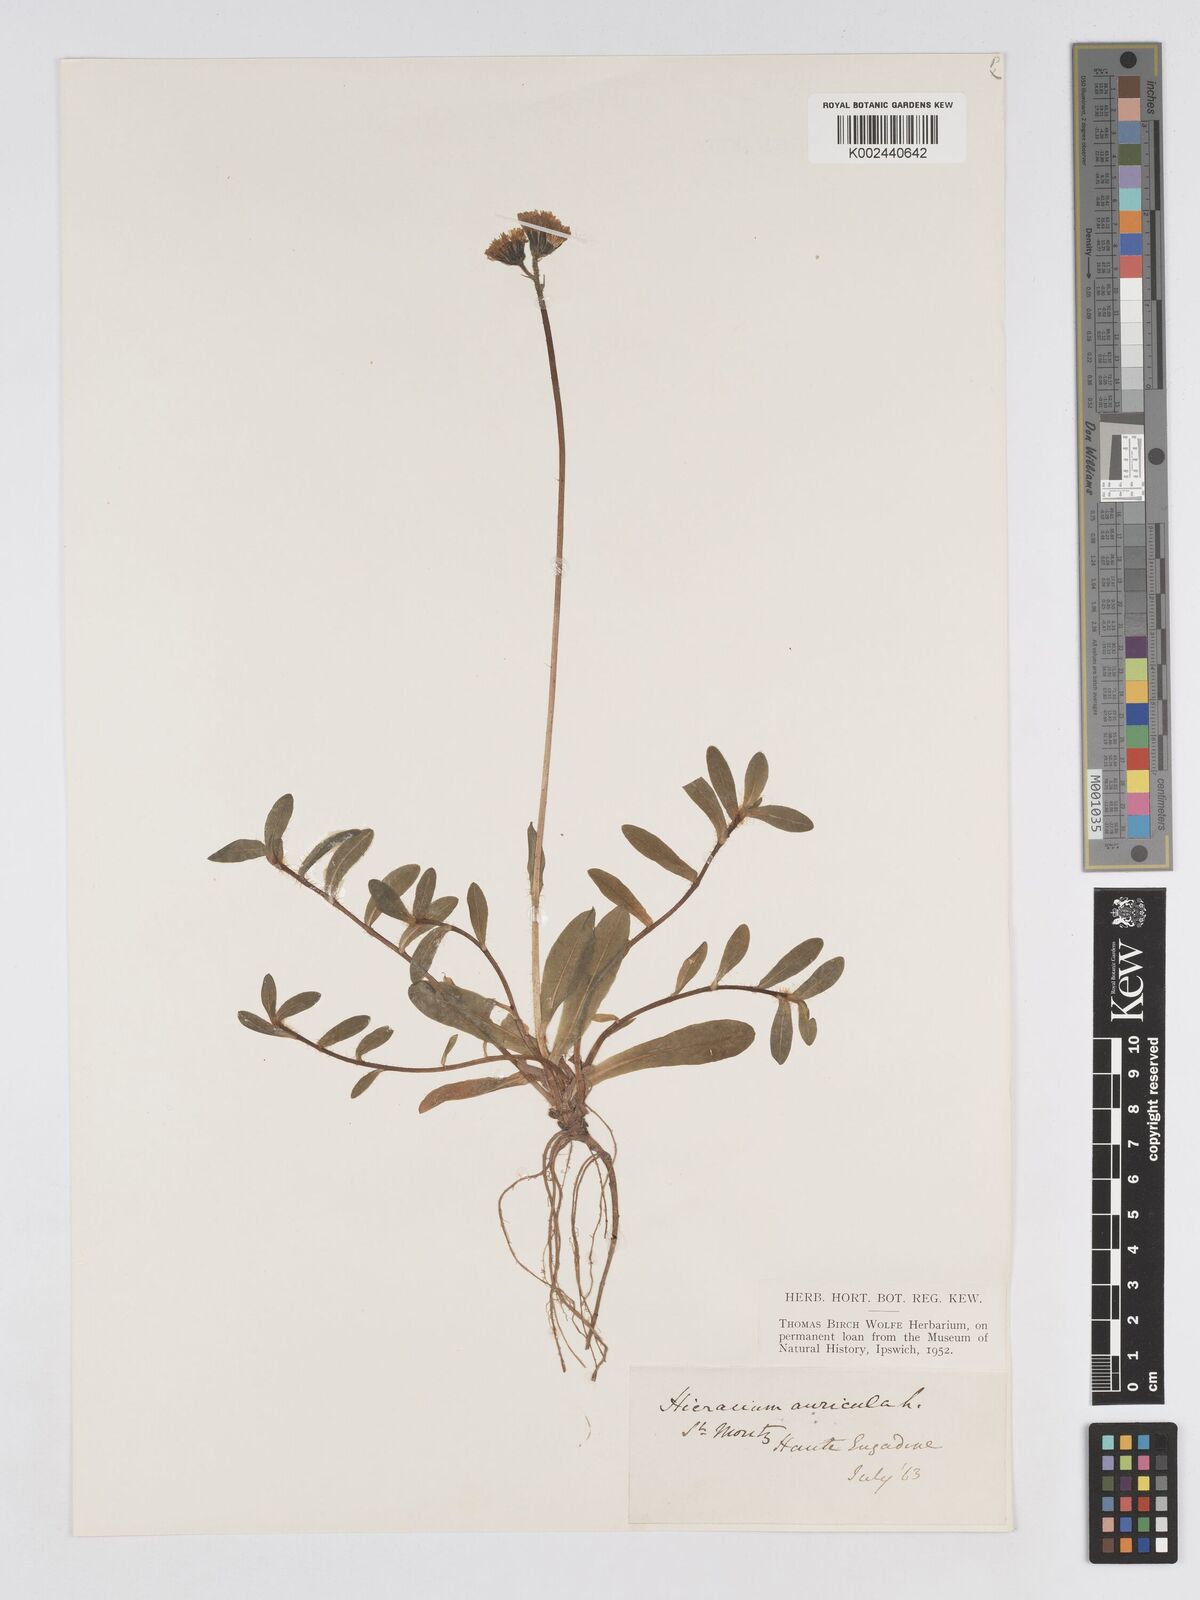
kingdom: Plantae
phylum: Tracheophyta
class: Magnoliopsida
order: Asterales
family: Asteraceae
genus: Pilosella
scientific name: Pilosella floribunda
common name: Glaucous hawkweed
